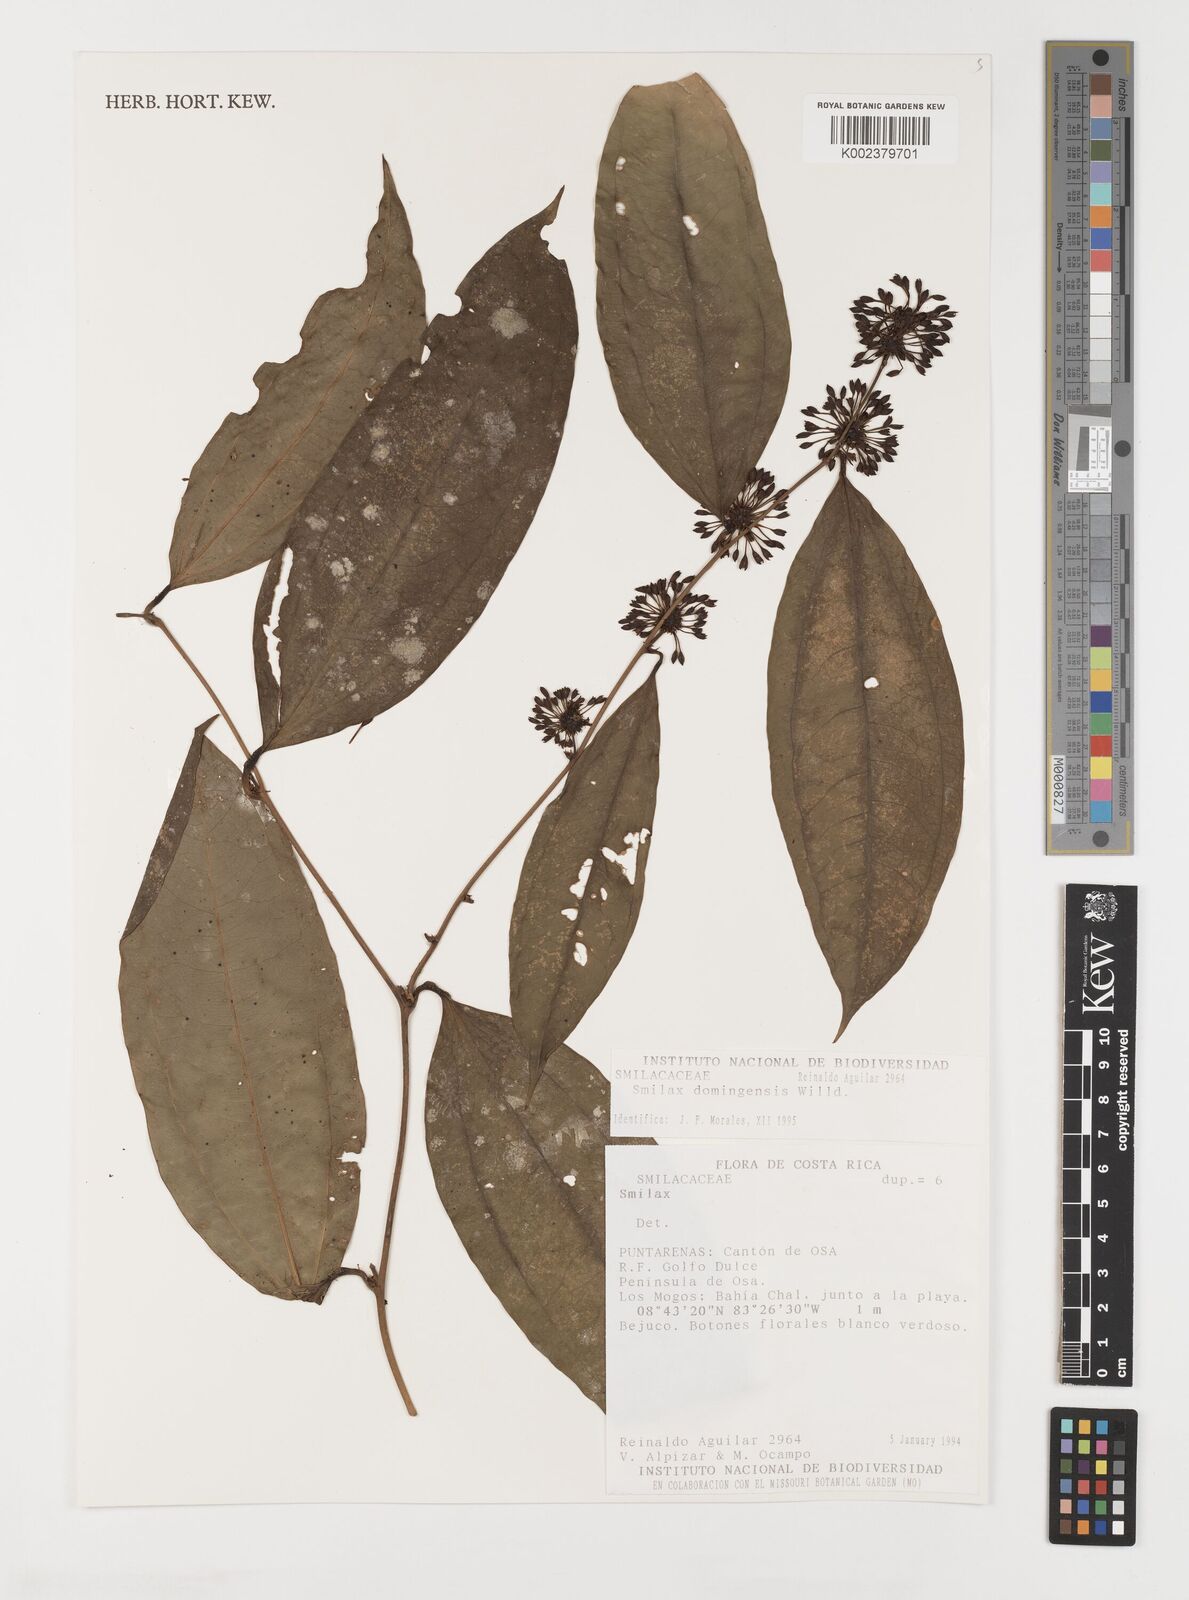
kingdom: Plantae
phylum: Tracheophyta
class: Liliopsida
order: Liliales
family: Smilacaceae
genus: Smilax
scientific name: Smilax domingensis
